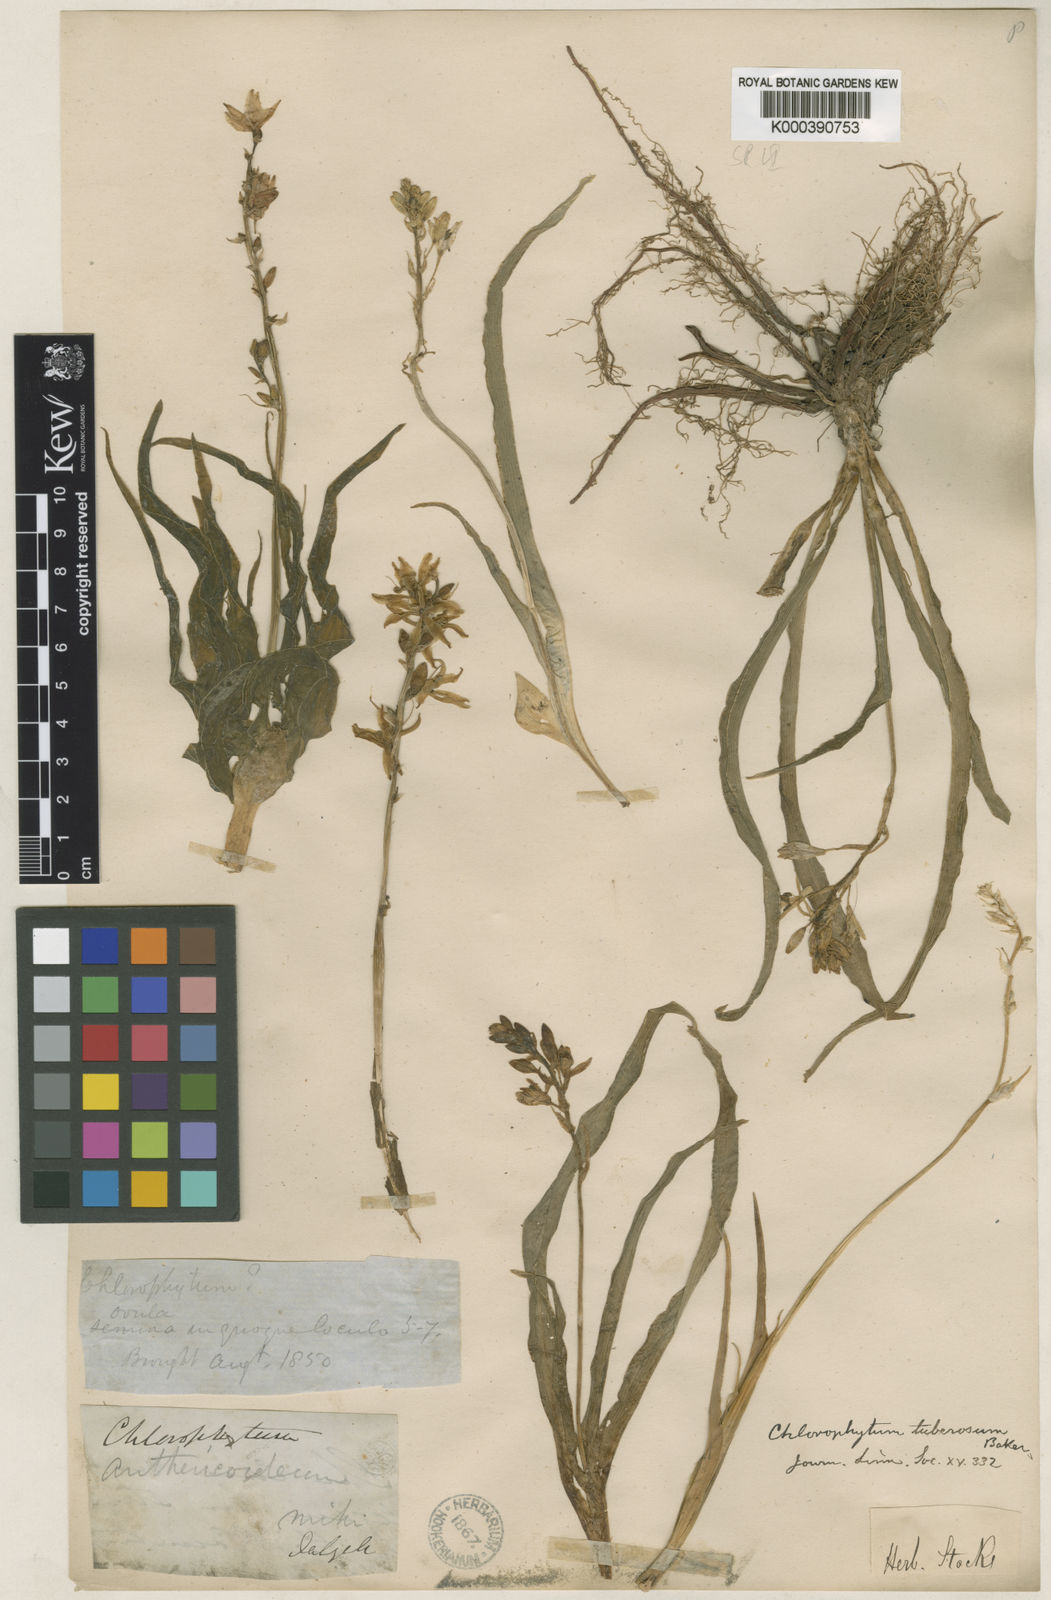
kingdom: Plantae
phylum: Tracheophyta
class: Liliopsida
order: Asparagales
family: Asparagaceae
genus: Chlorophytum
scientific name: Chlorophytum tuberosum
